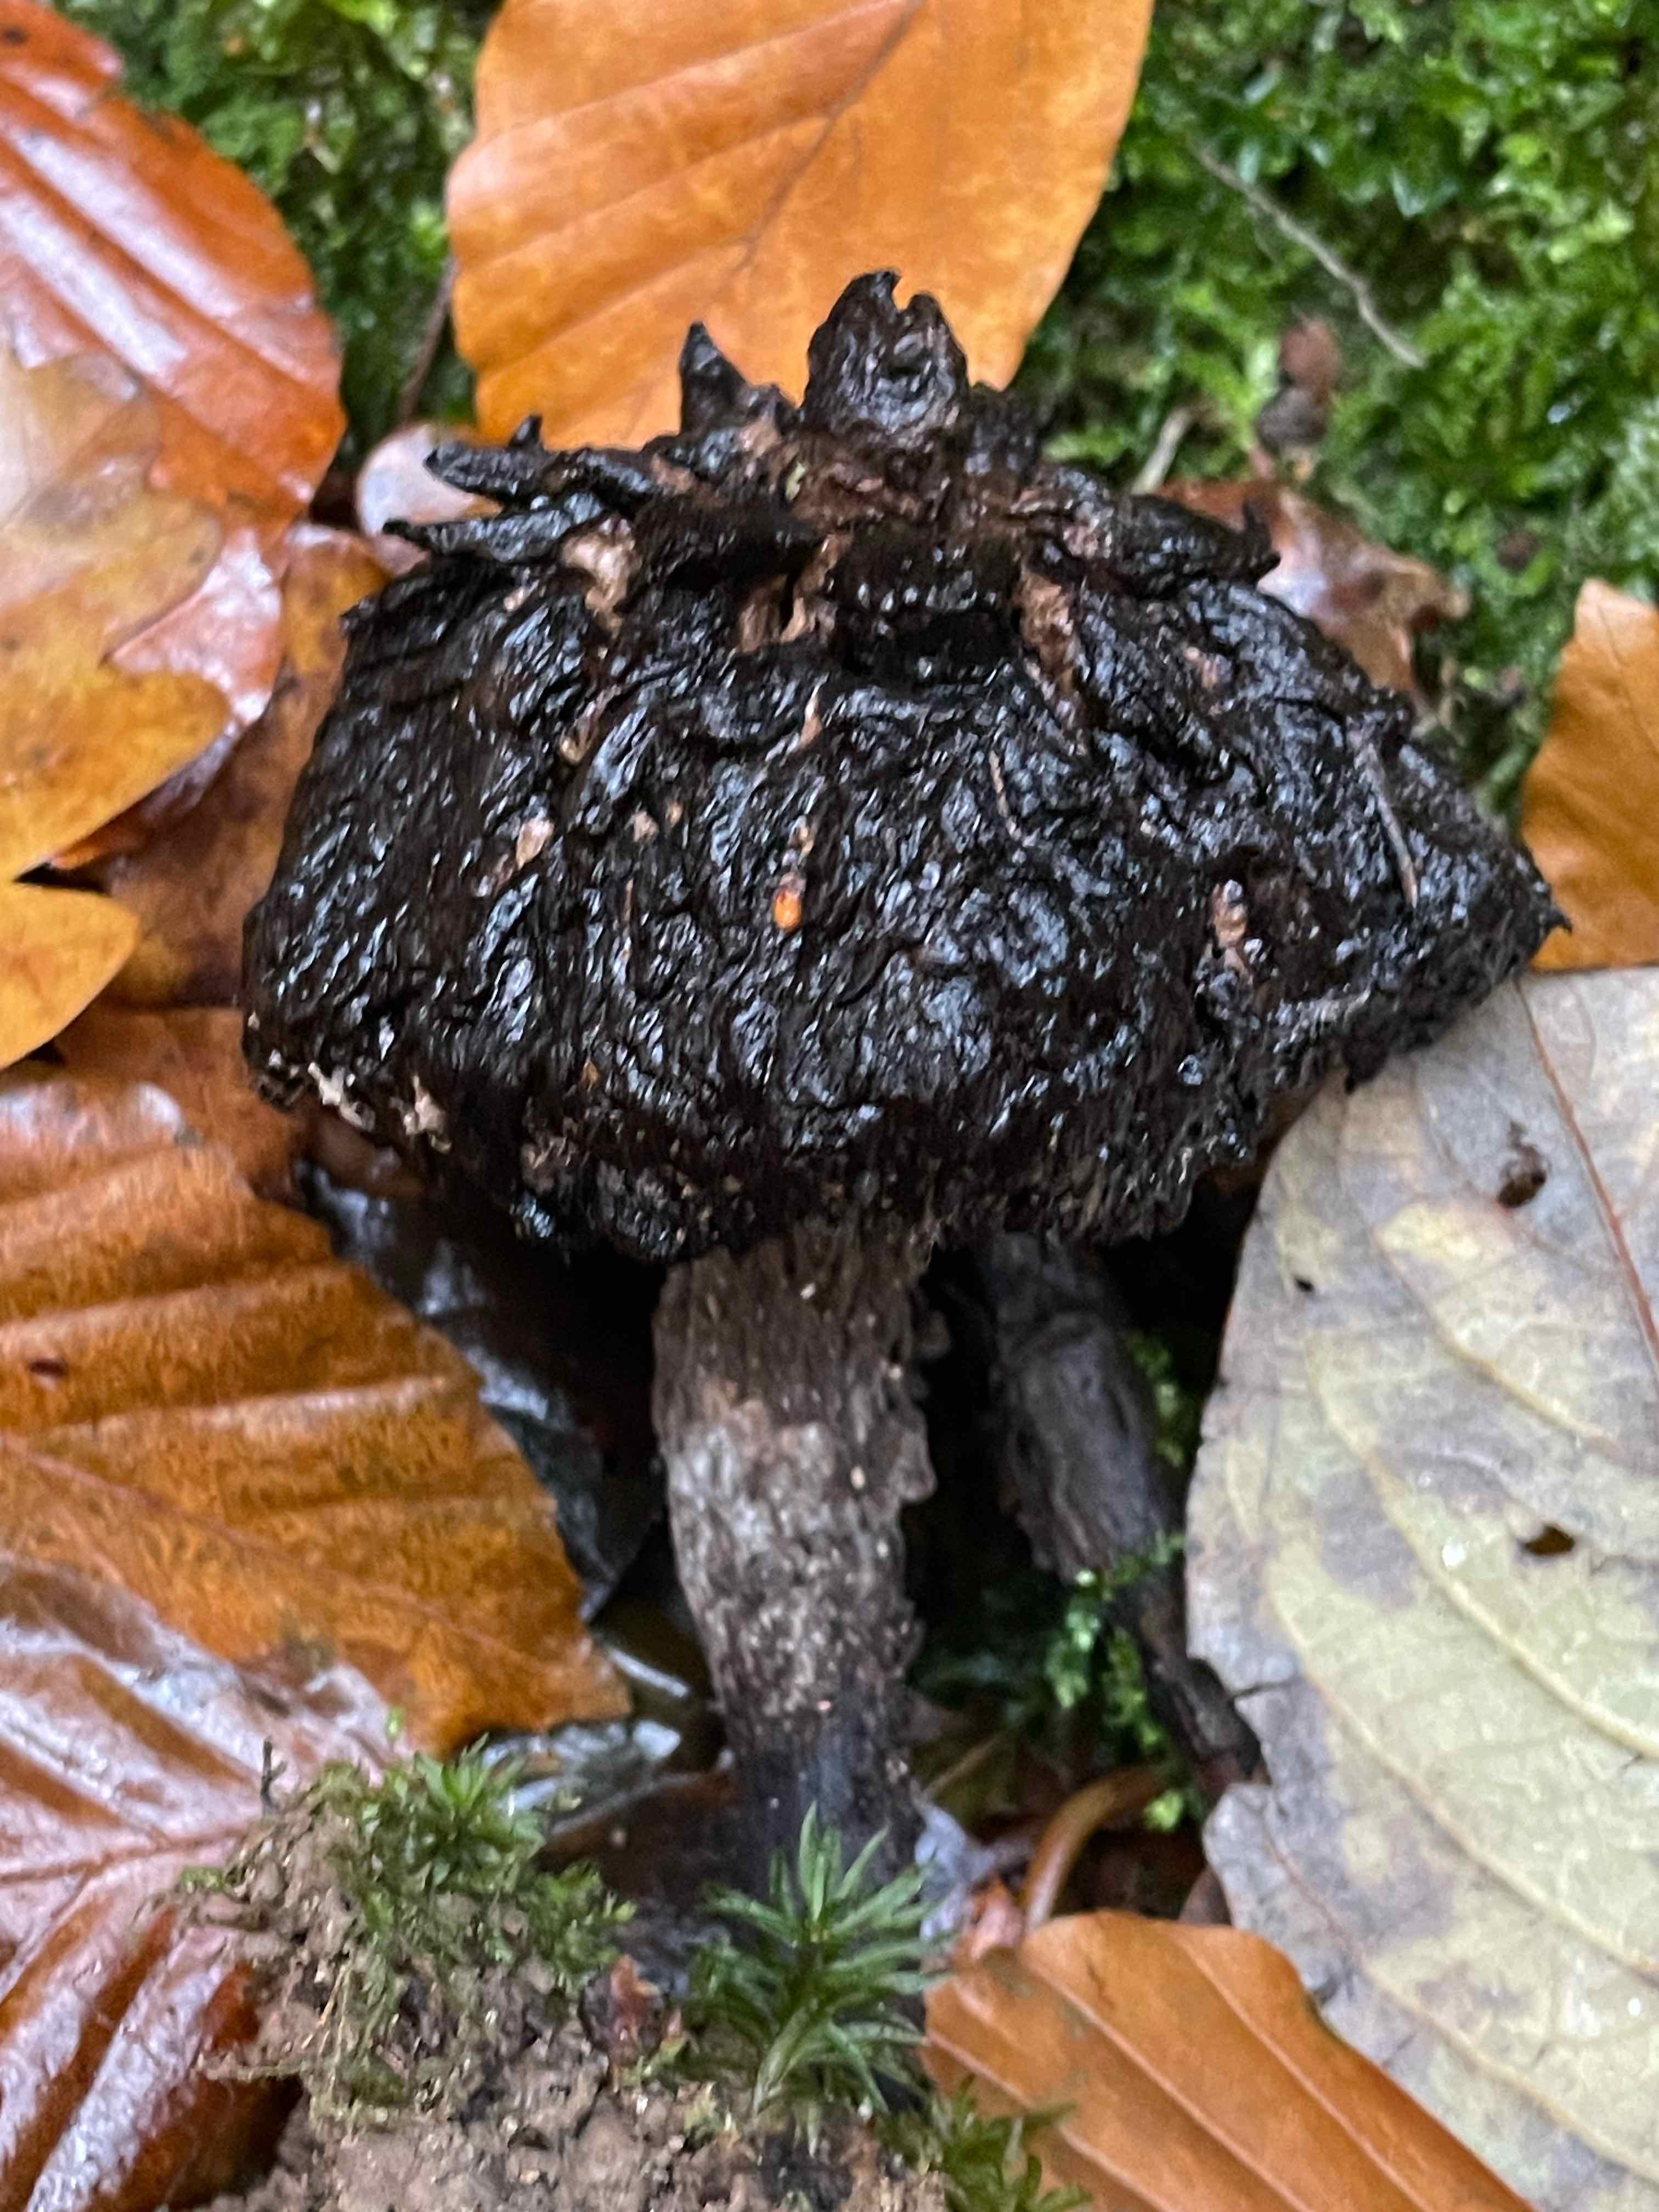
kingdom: Fungi
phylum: Basidiomycota
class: Agaricomycetes
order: Boletales
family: Boletaceae
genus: Strobilomyces
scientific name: Strobilomyces strobilaceus
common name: koglerørhat
